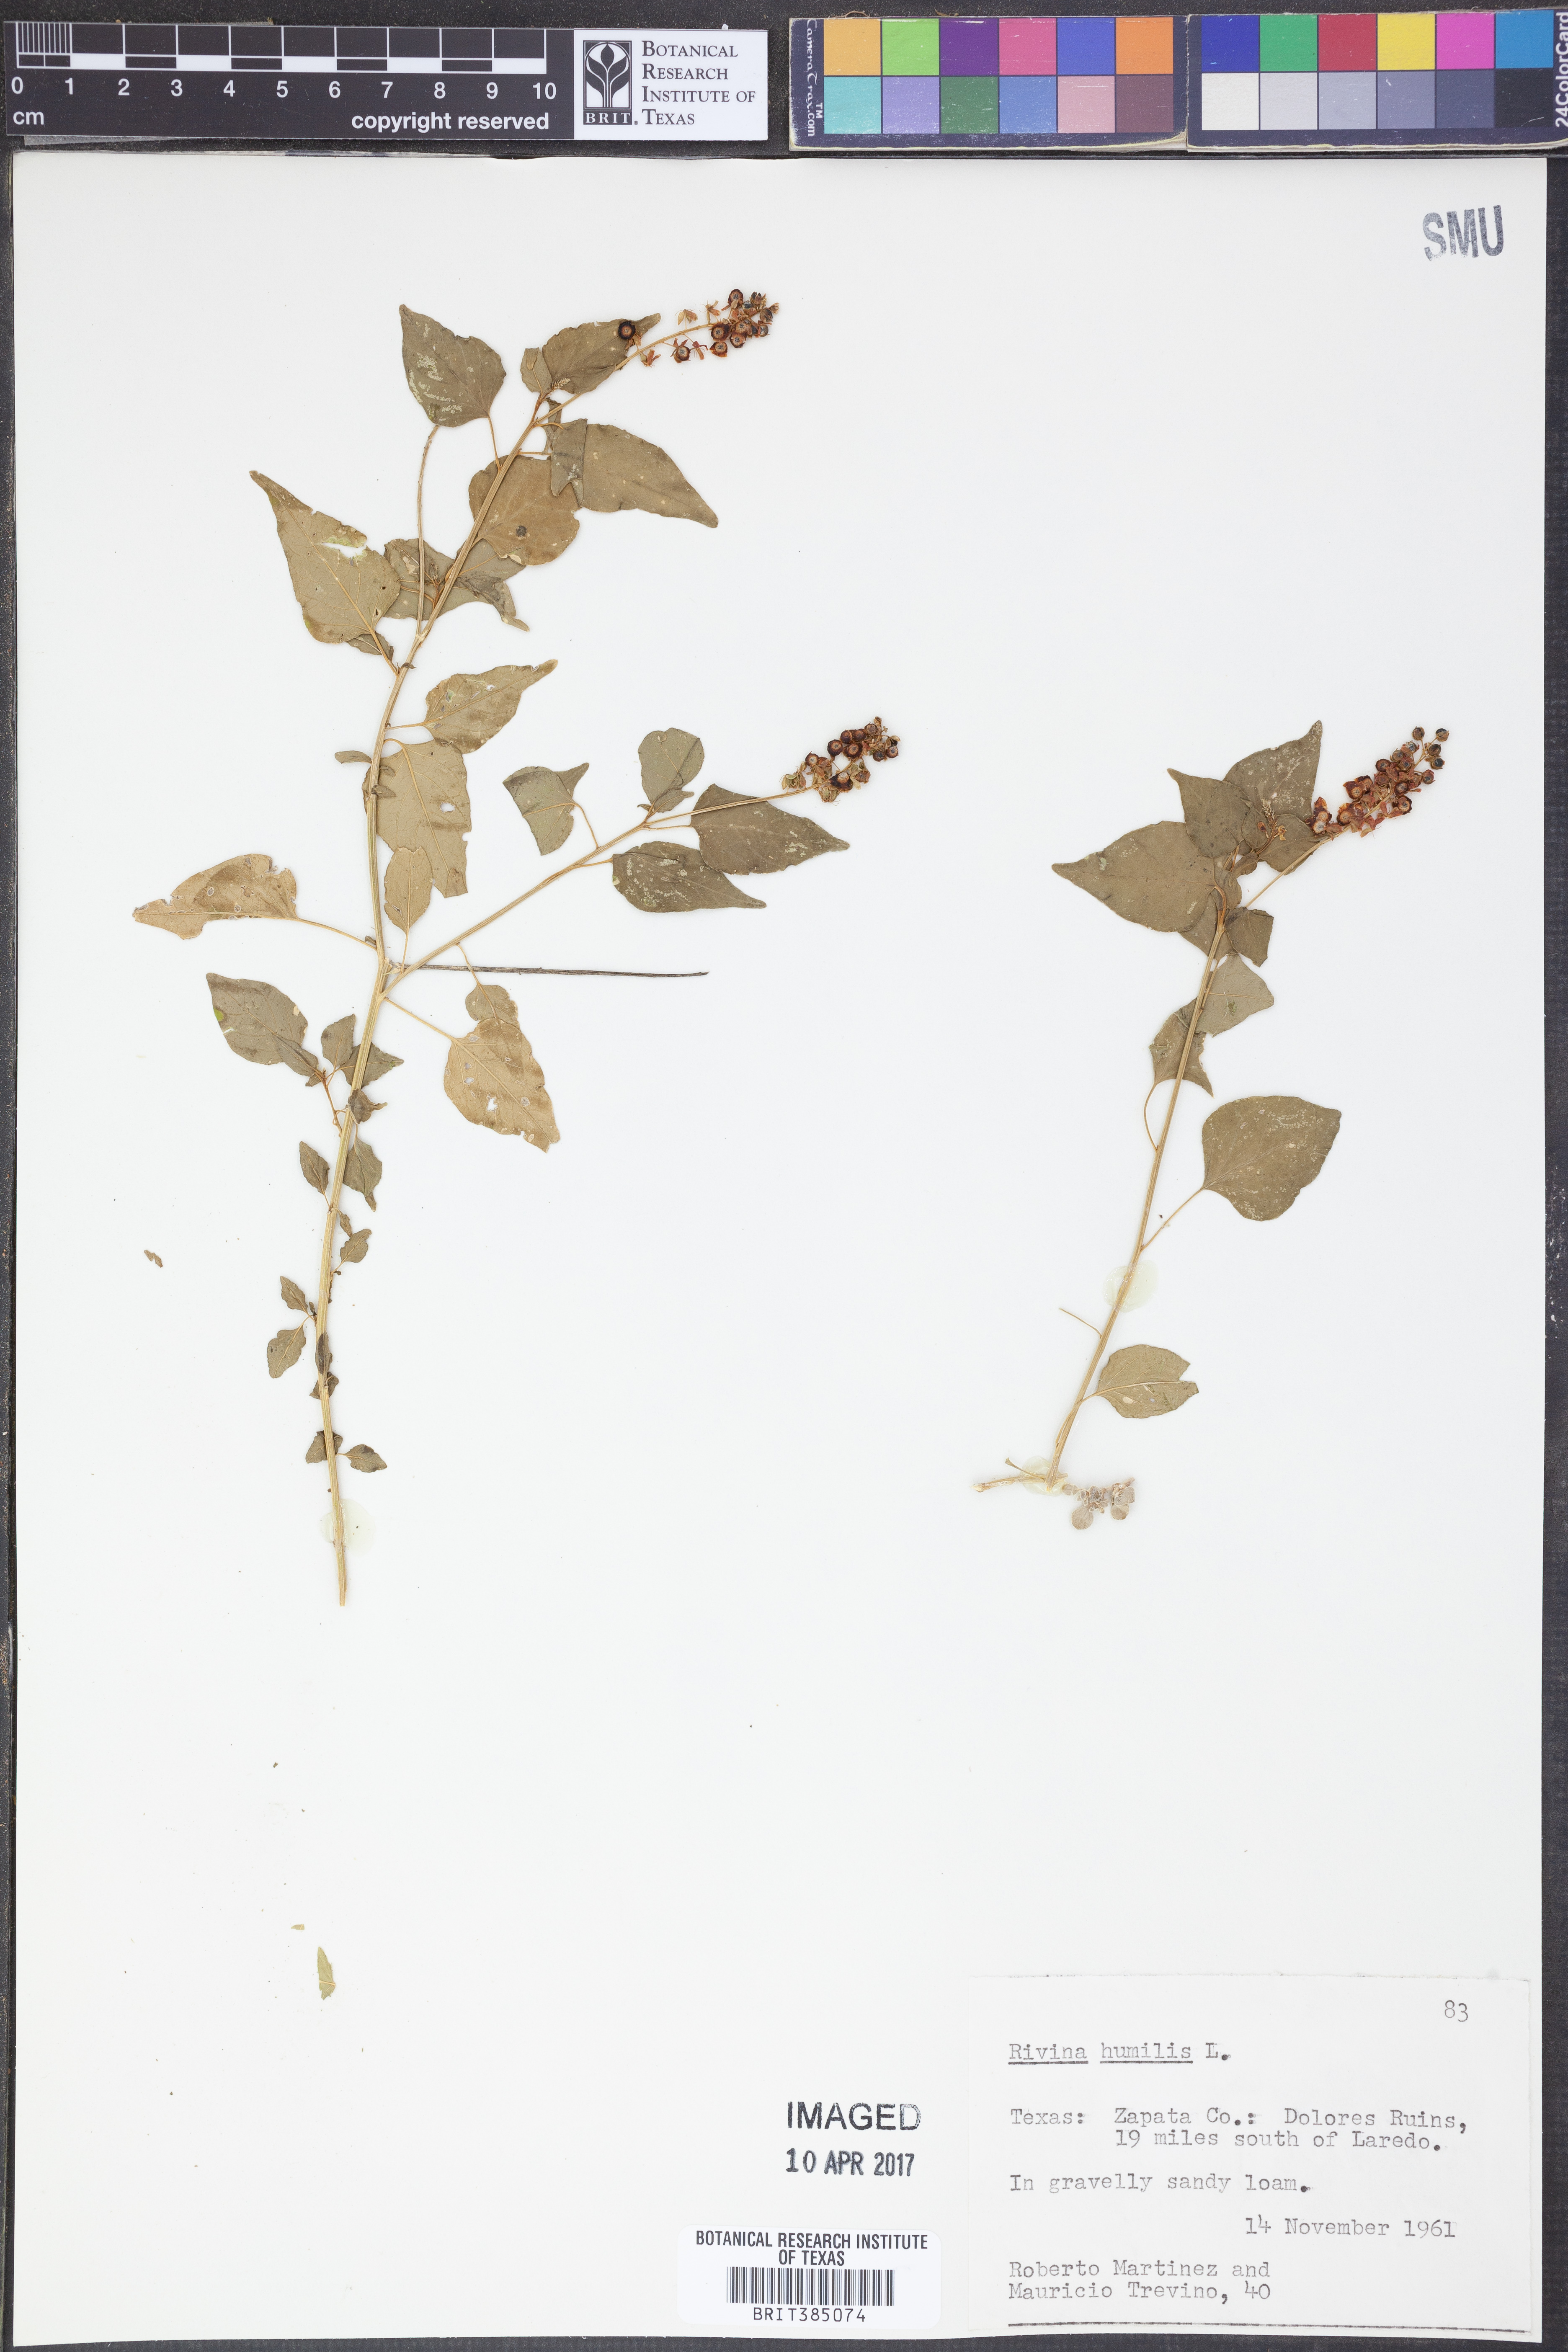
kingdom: Plantae
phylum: Tracheophyta
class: Magnoliopsida
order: Caryophyllales
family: Phytolaccaceae
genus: Rivina
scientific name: Rivina humilis
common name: Rougeplant
